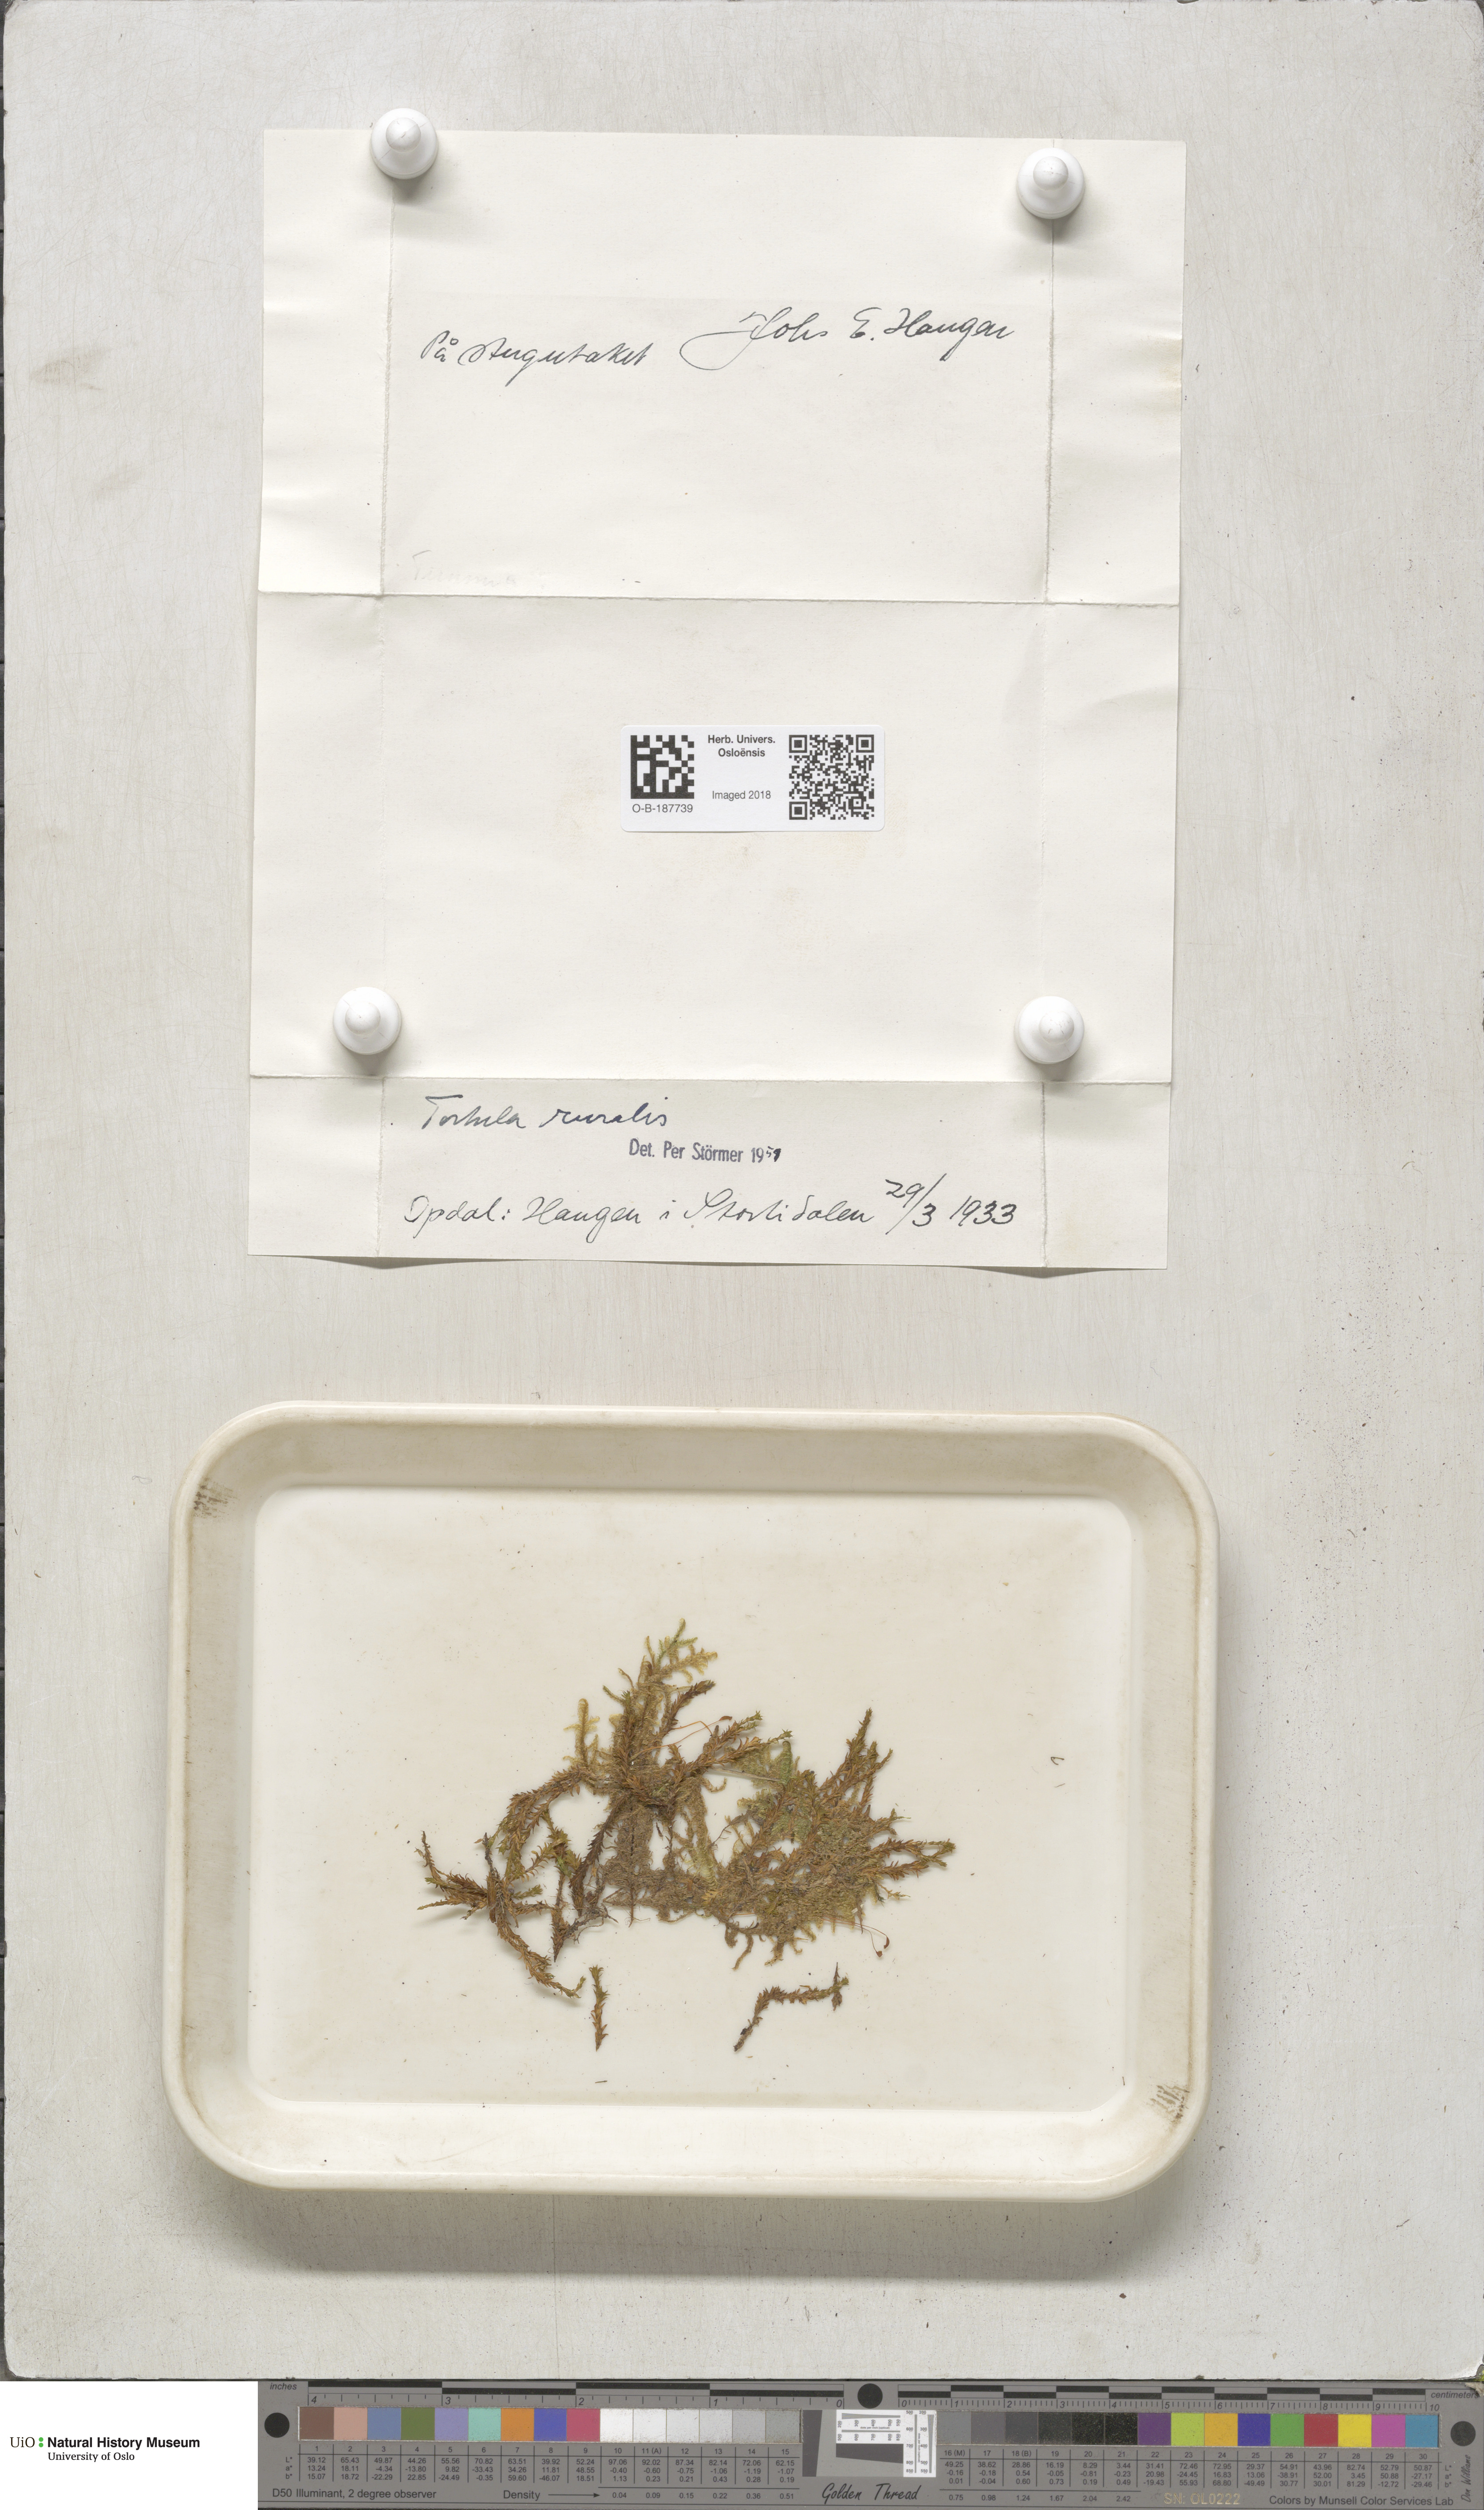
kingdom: Plantae
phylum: Bryophyta
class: Bryopsida
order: Pottiales
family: Pottiaceae
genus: Syntrichia
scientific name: Syntrichia ruralis
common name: Sidewalk screw moss
